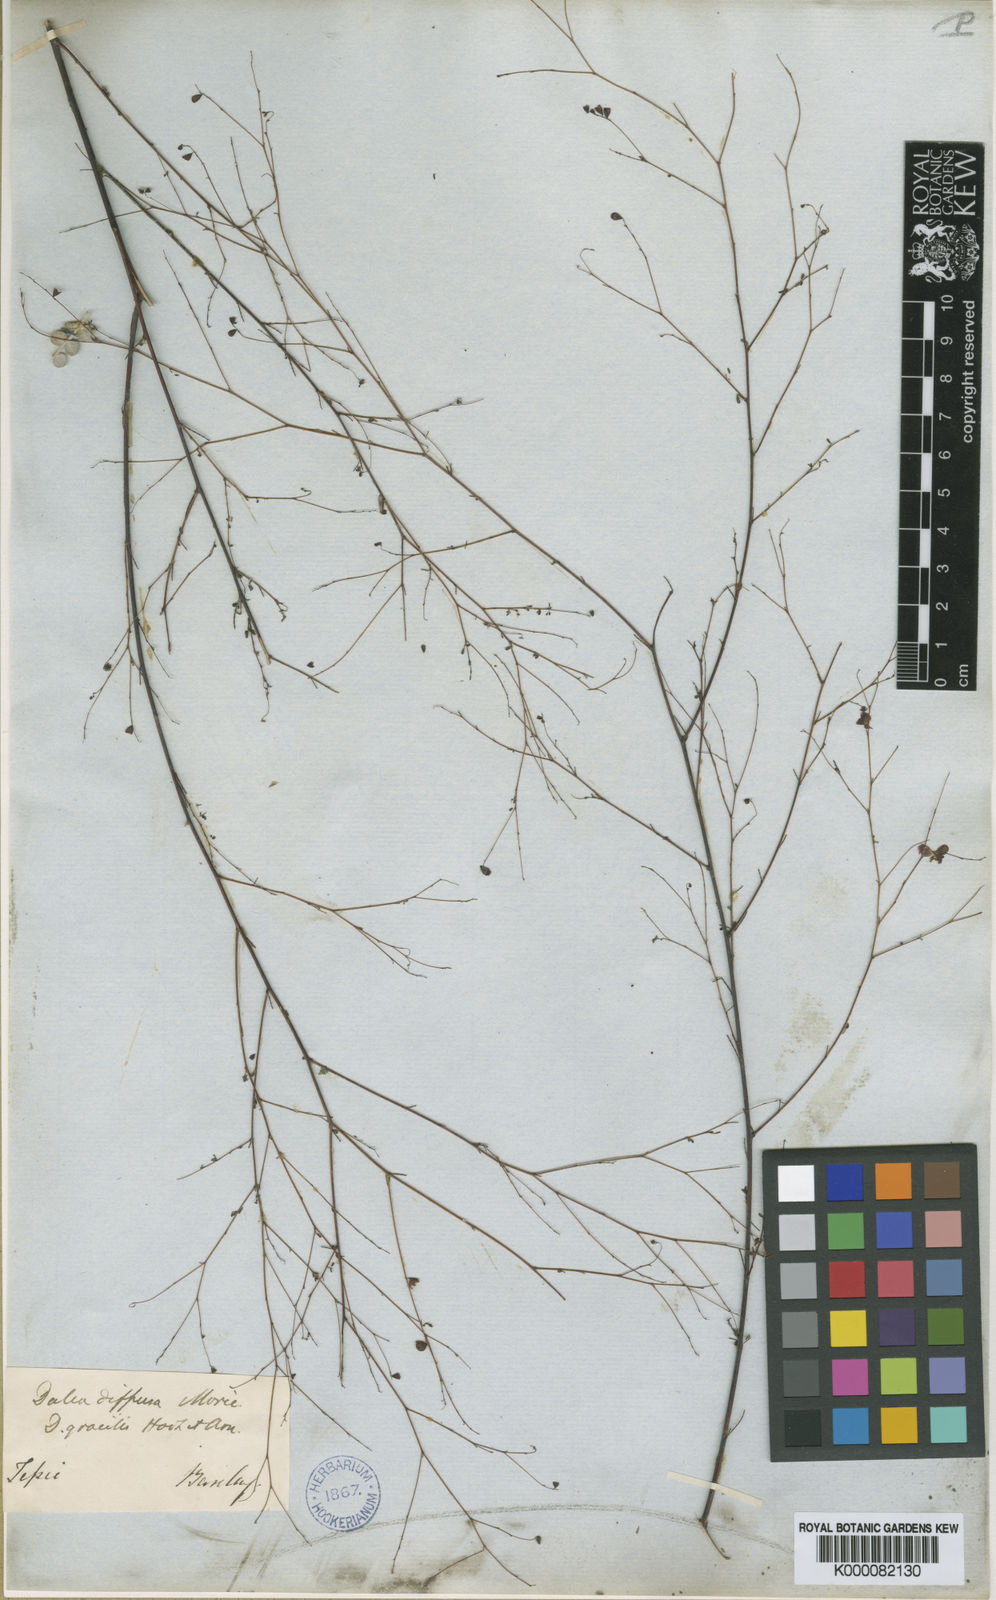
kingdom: Plantae
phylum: Tracheophyta
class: Magnoliopsida
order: Fabales
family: Fabaceae
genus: Marina
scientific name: Marina diffusa
